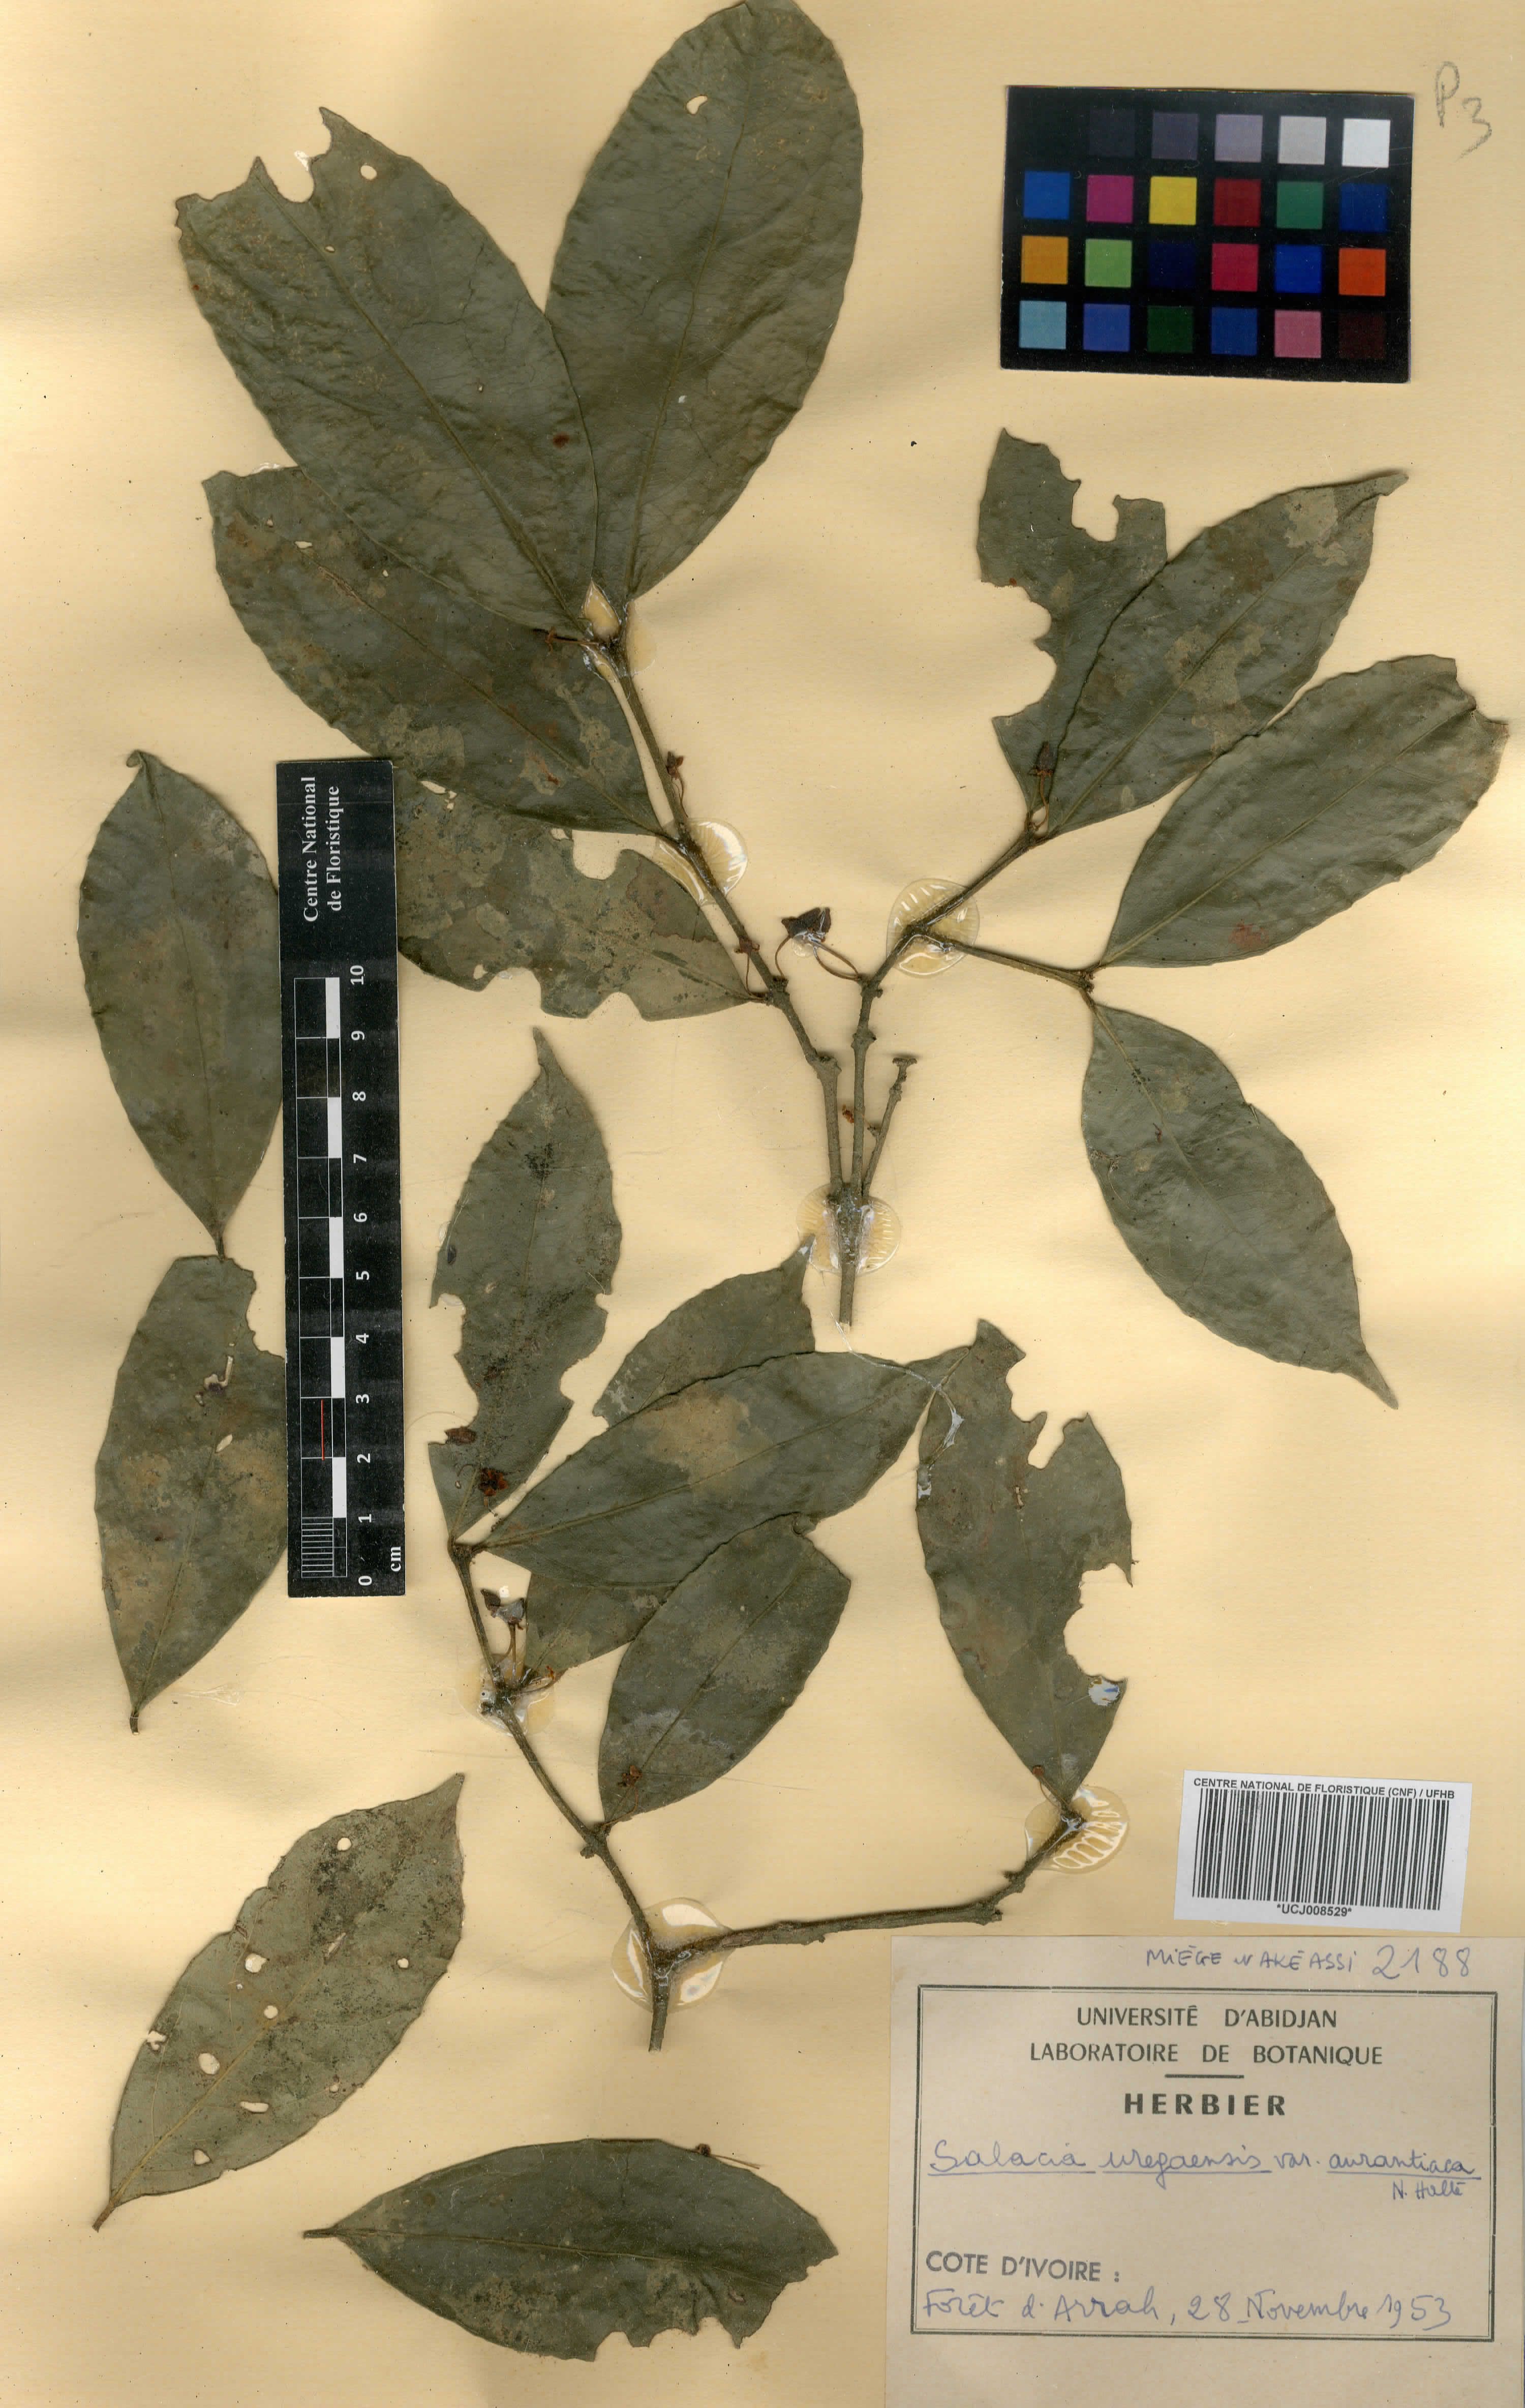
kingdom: Plantae
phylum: Tracheophyta
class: Magnoliopsida
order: Celastrales
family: Celastraceae
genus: Salacia
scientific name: Salacia lehmbachii
